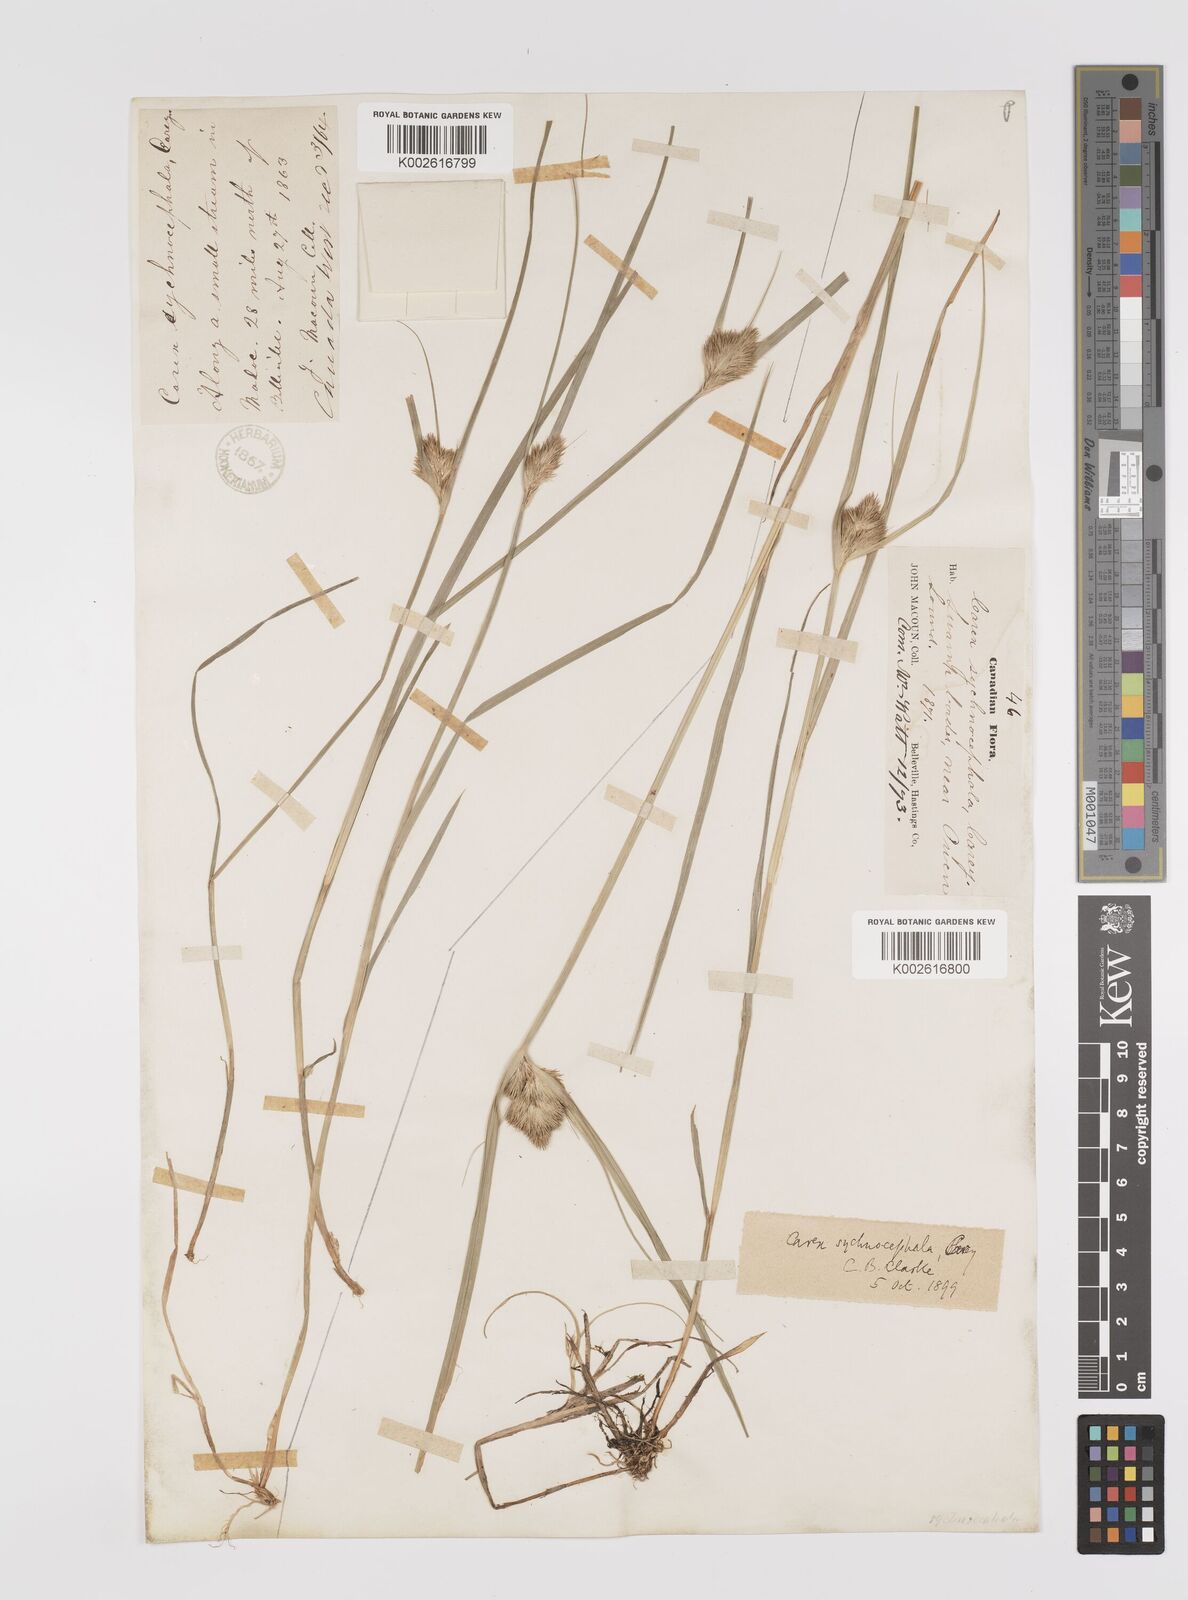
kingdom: Plantae
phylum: Tracheophyta
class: Liliopsida
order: Poales
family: Cyperaceae
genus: Carex
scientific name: Carex sychnocephala
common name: Dense long-beaked sedge
